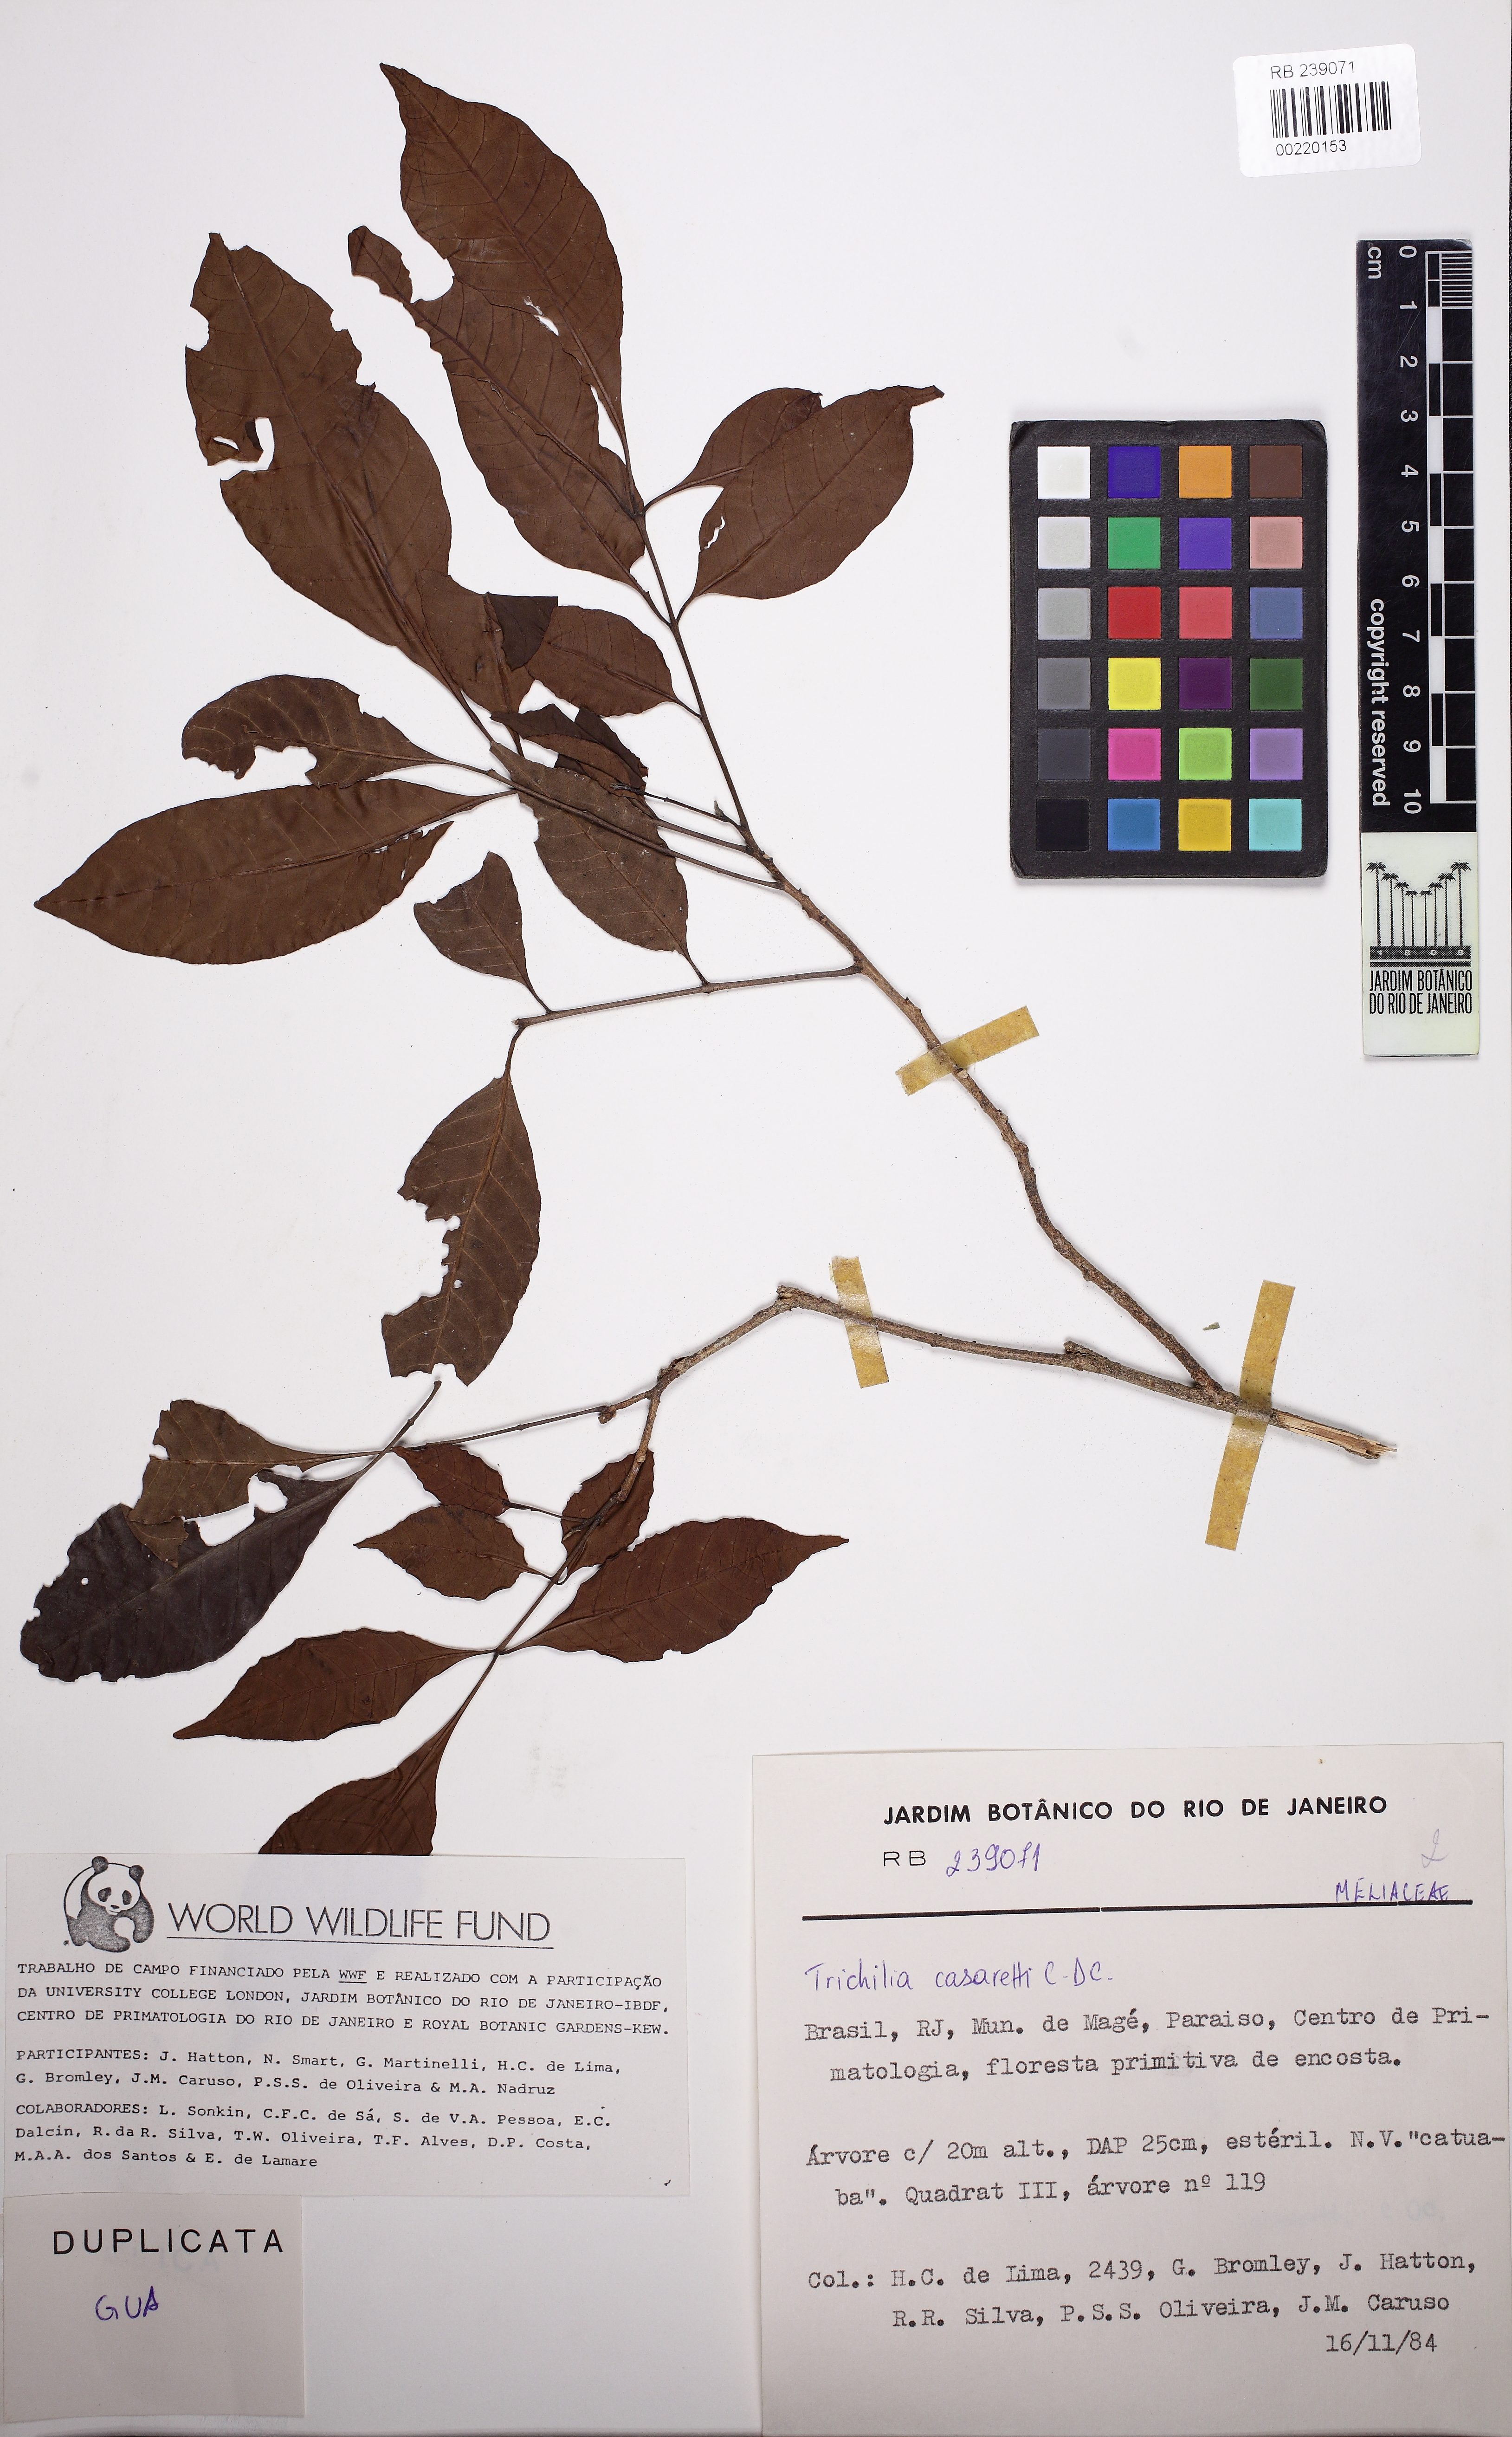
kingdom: Plantae
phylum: Tracheophyta
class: Magnoliopsida
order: Sapindales
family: Meliaceae
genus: Trichilia
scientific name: Trichilia casaretti
